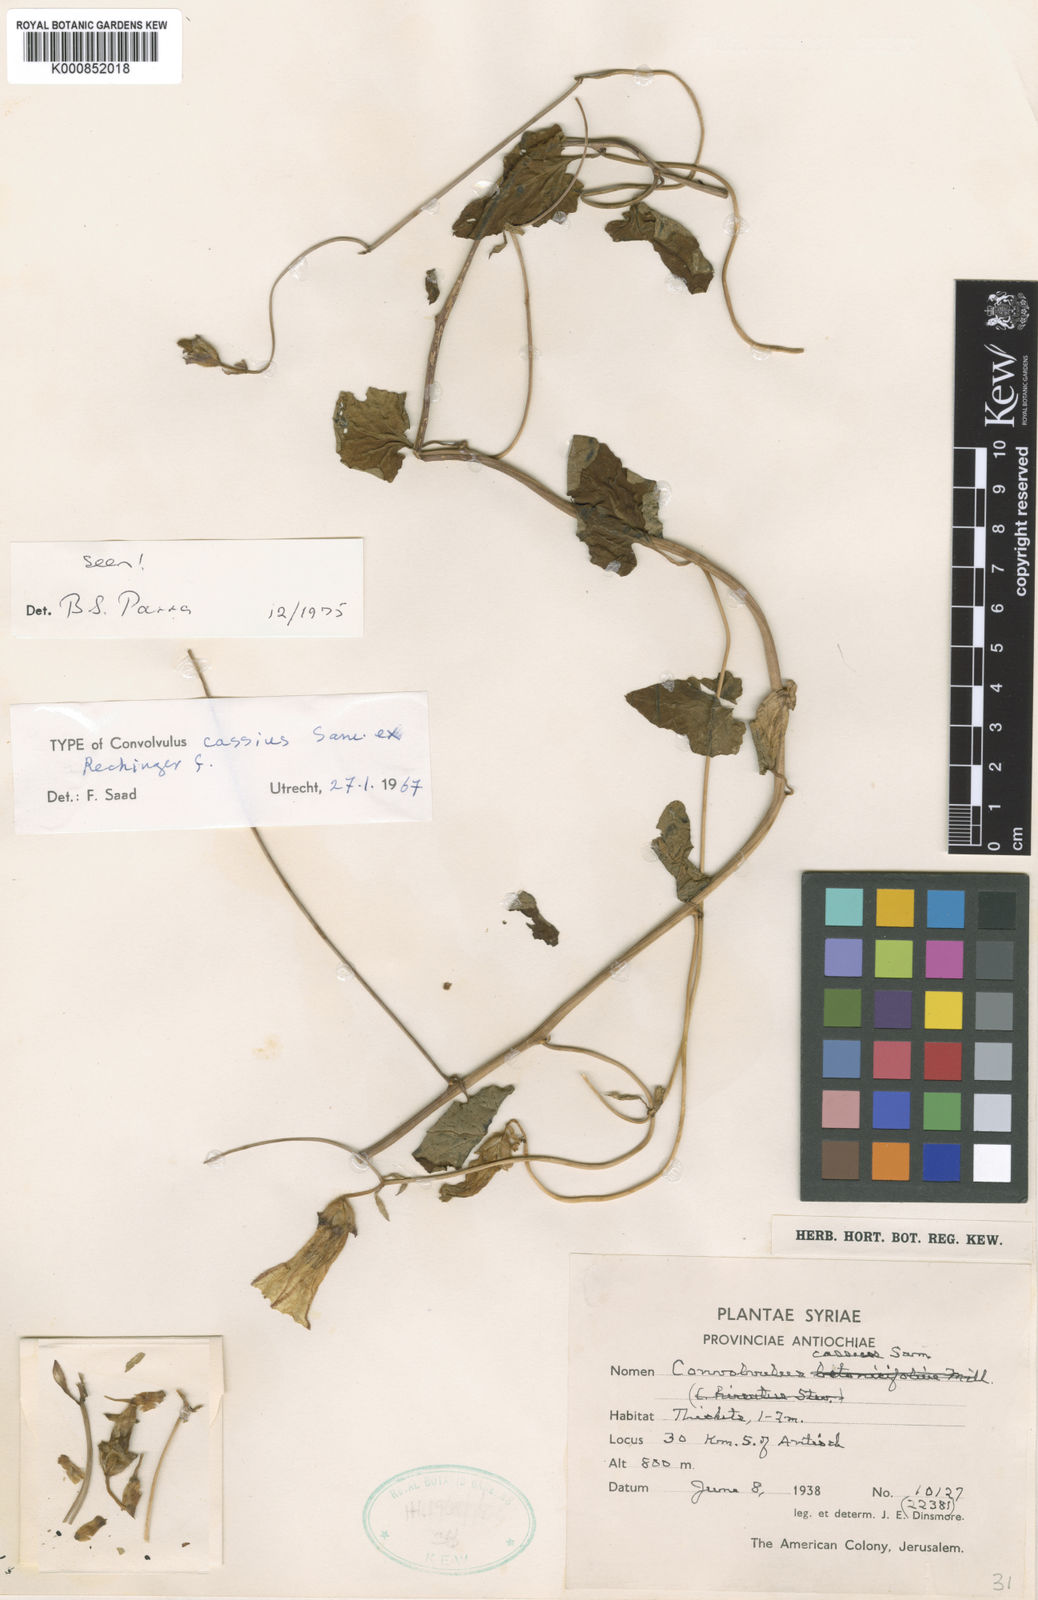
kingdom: Plantae
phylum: Tracheophyta
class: Magnoliopsida
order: Solanales
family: Convolvulaceae
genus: Convolvulus
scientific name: Convolvulus cassius
